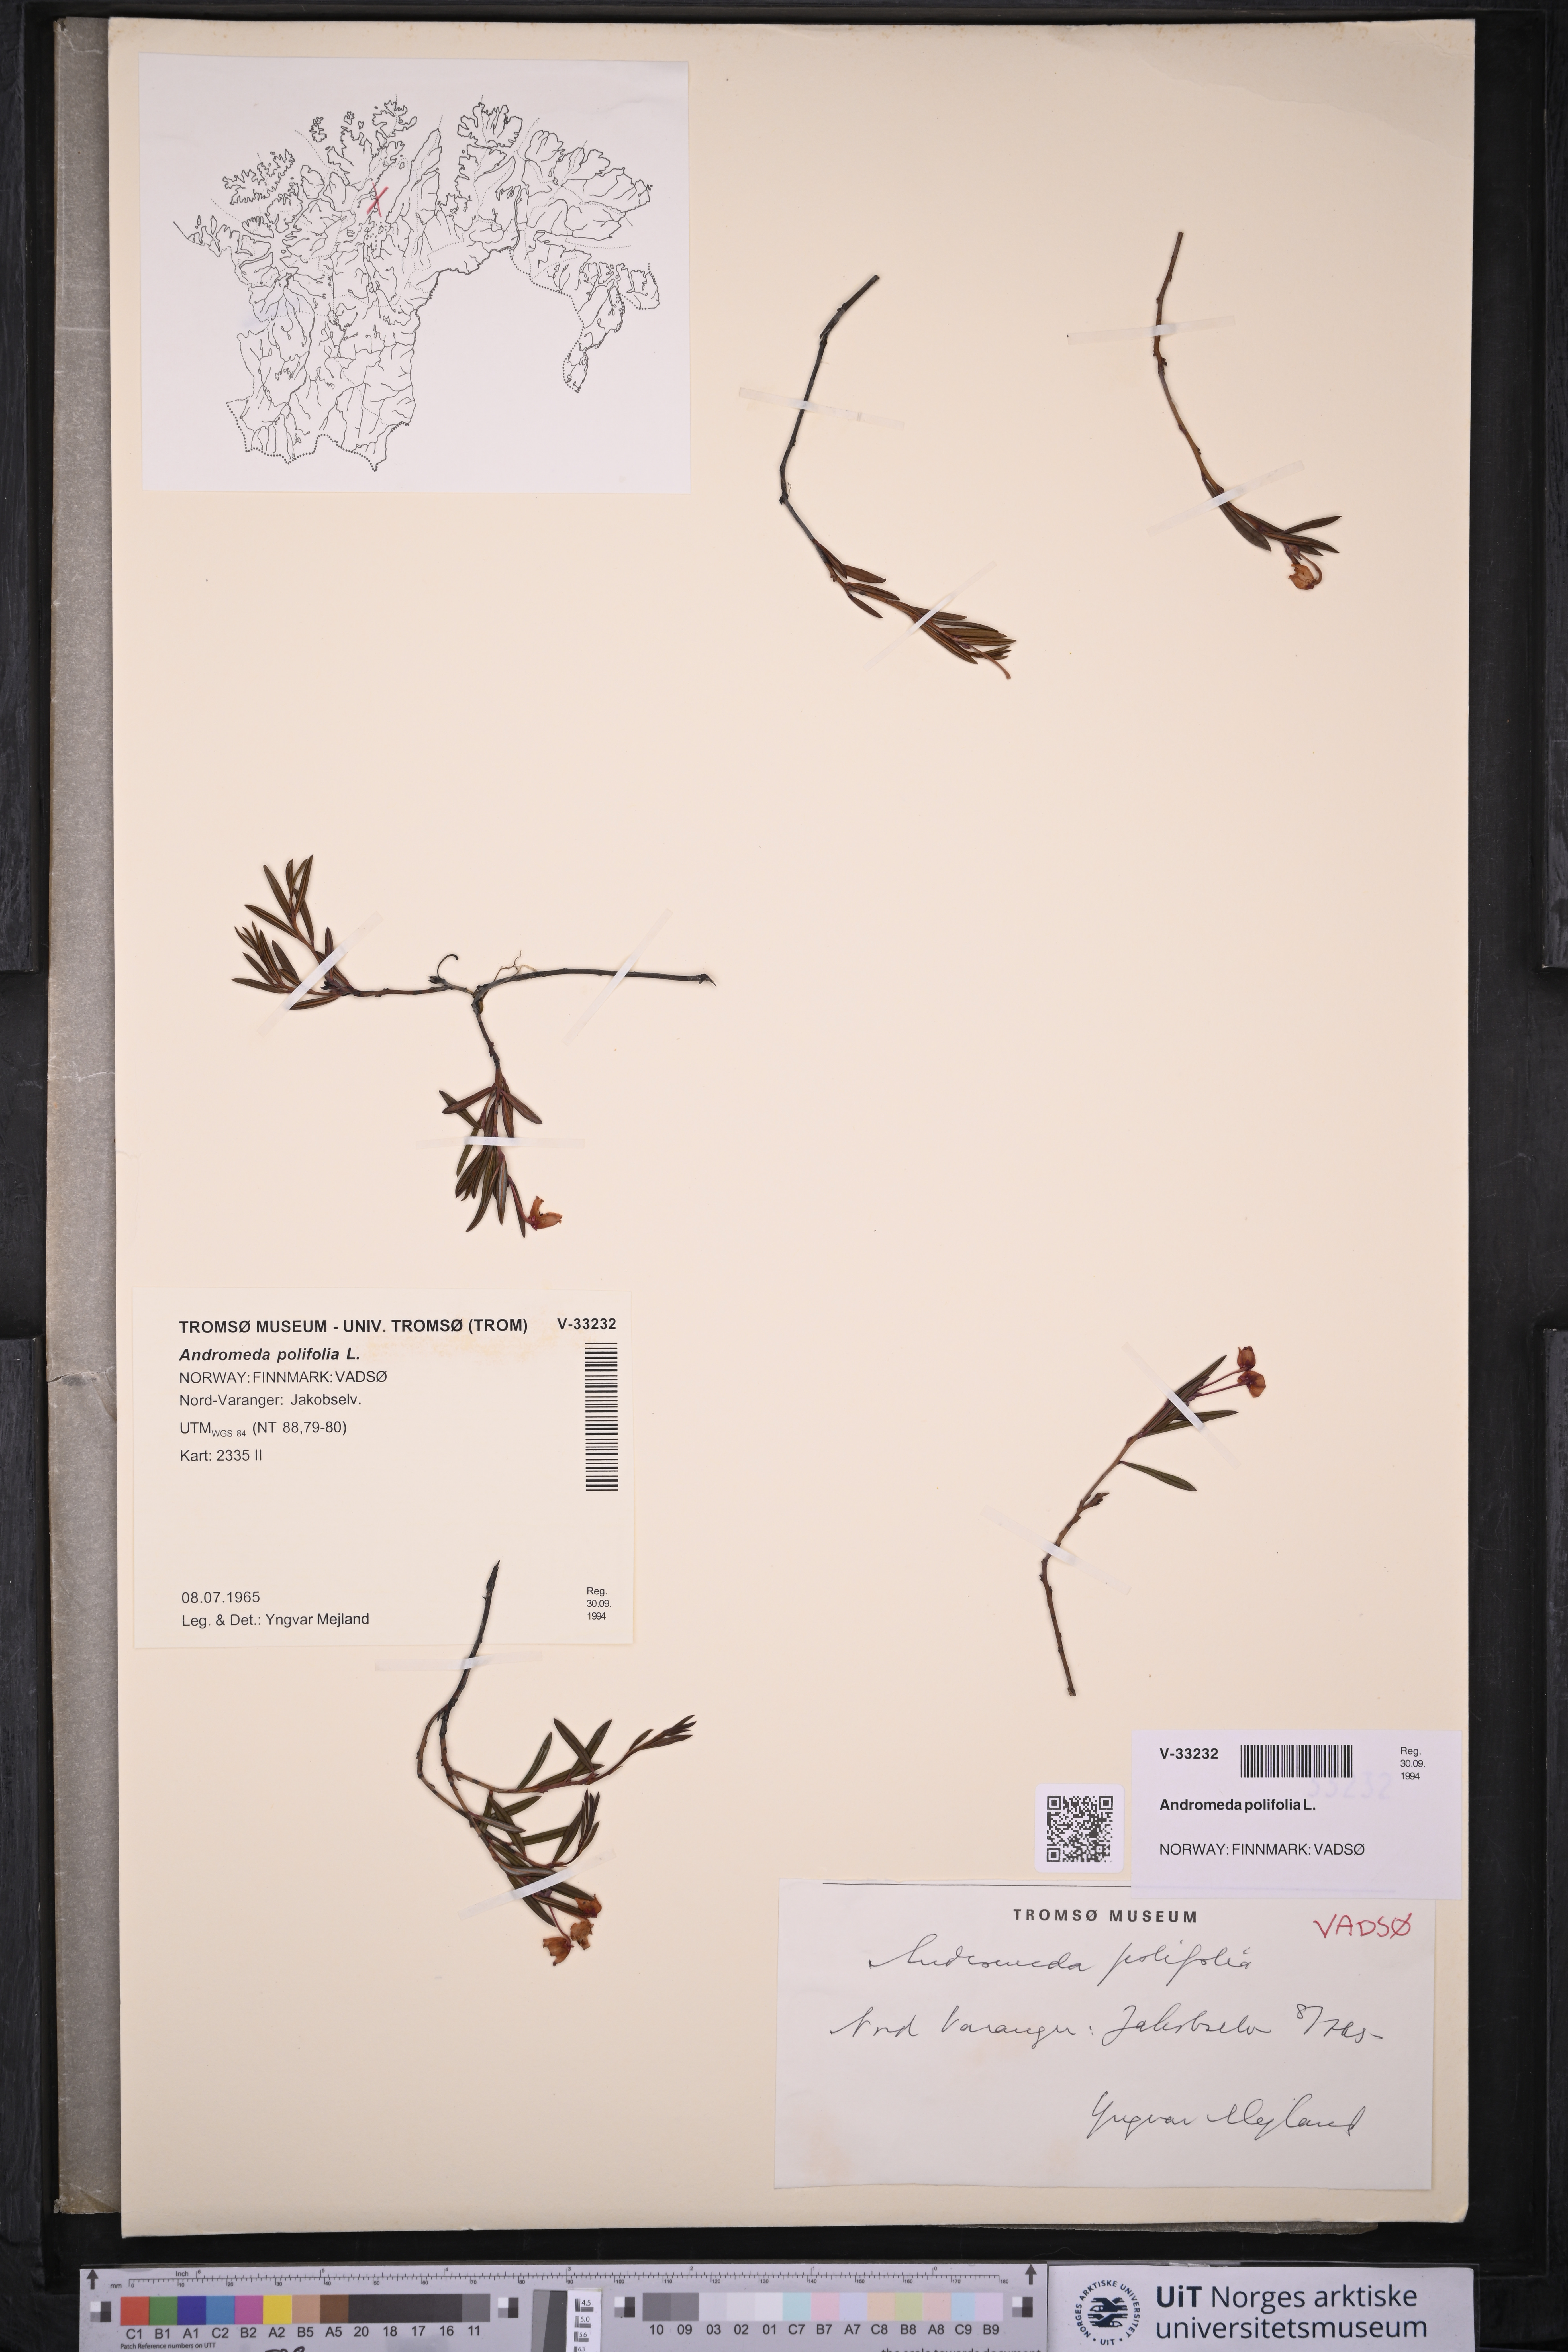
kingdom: Plantae
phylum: Tracheophyta
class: Magnoliopsida
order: Ericales
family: Ericaceae
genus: Andromeda
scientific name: Andromeda polifolia
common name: Bog-rosemary
